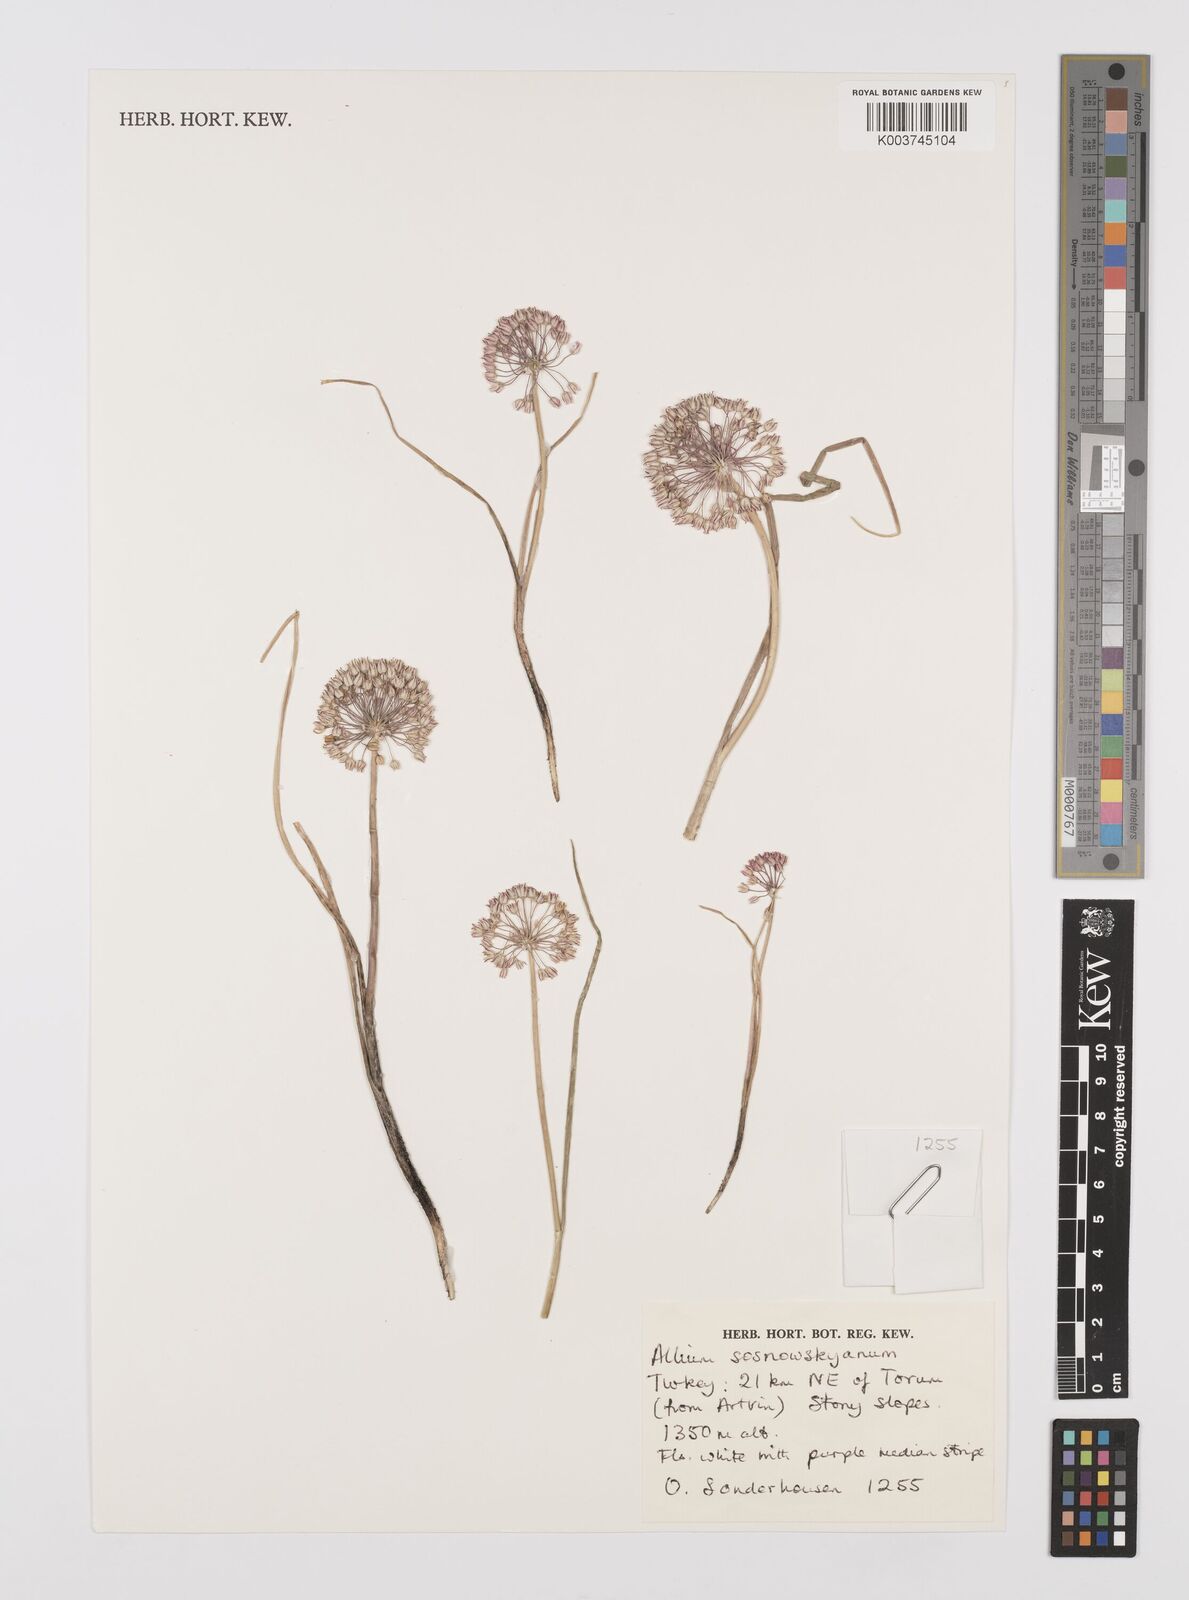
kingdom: Plantae
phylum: Tracheophyta
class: Liliopsida
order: Asparagales
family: Amaryllidaceae
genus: Allium
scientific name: Allium sosnovskyanum
